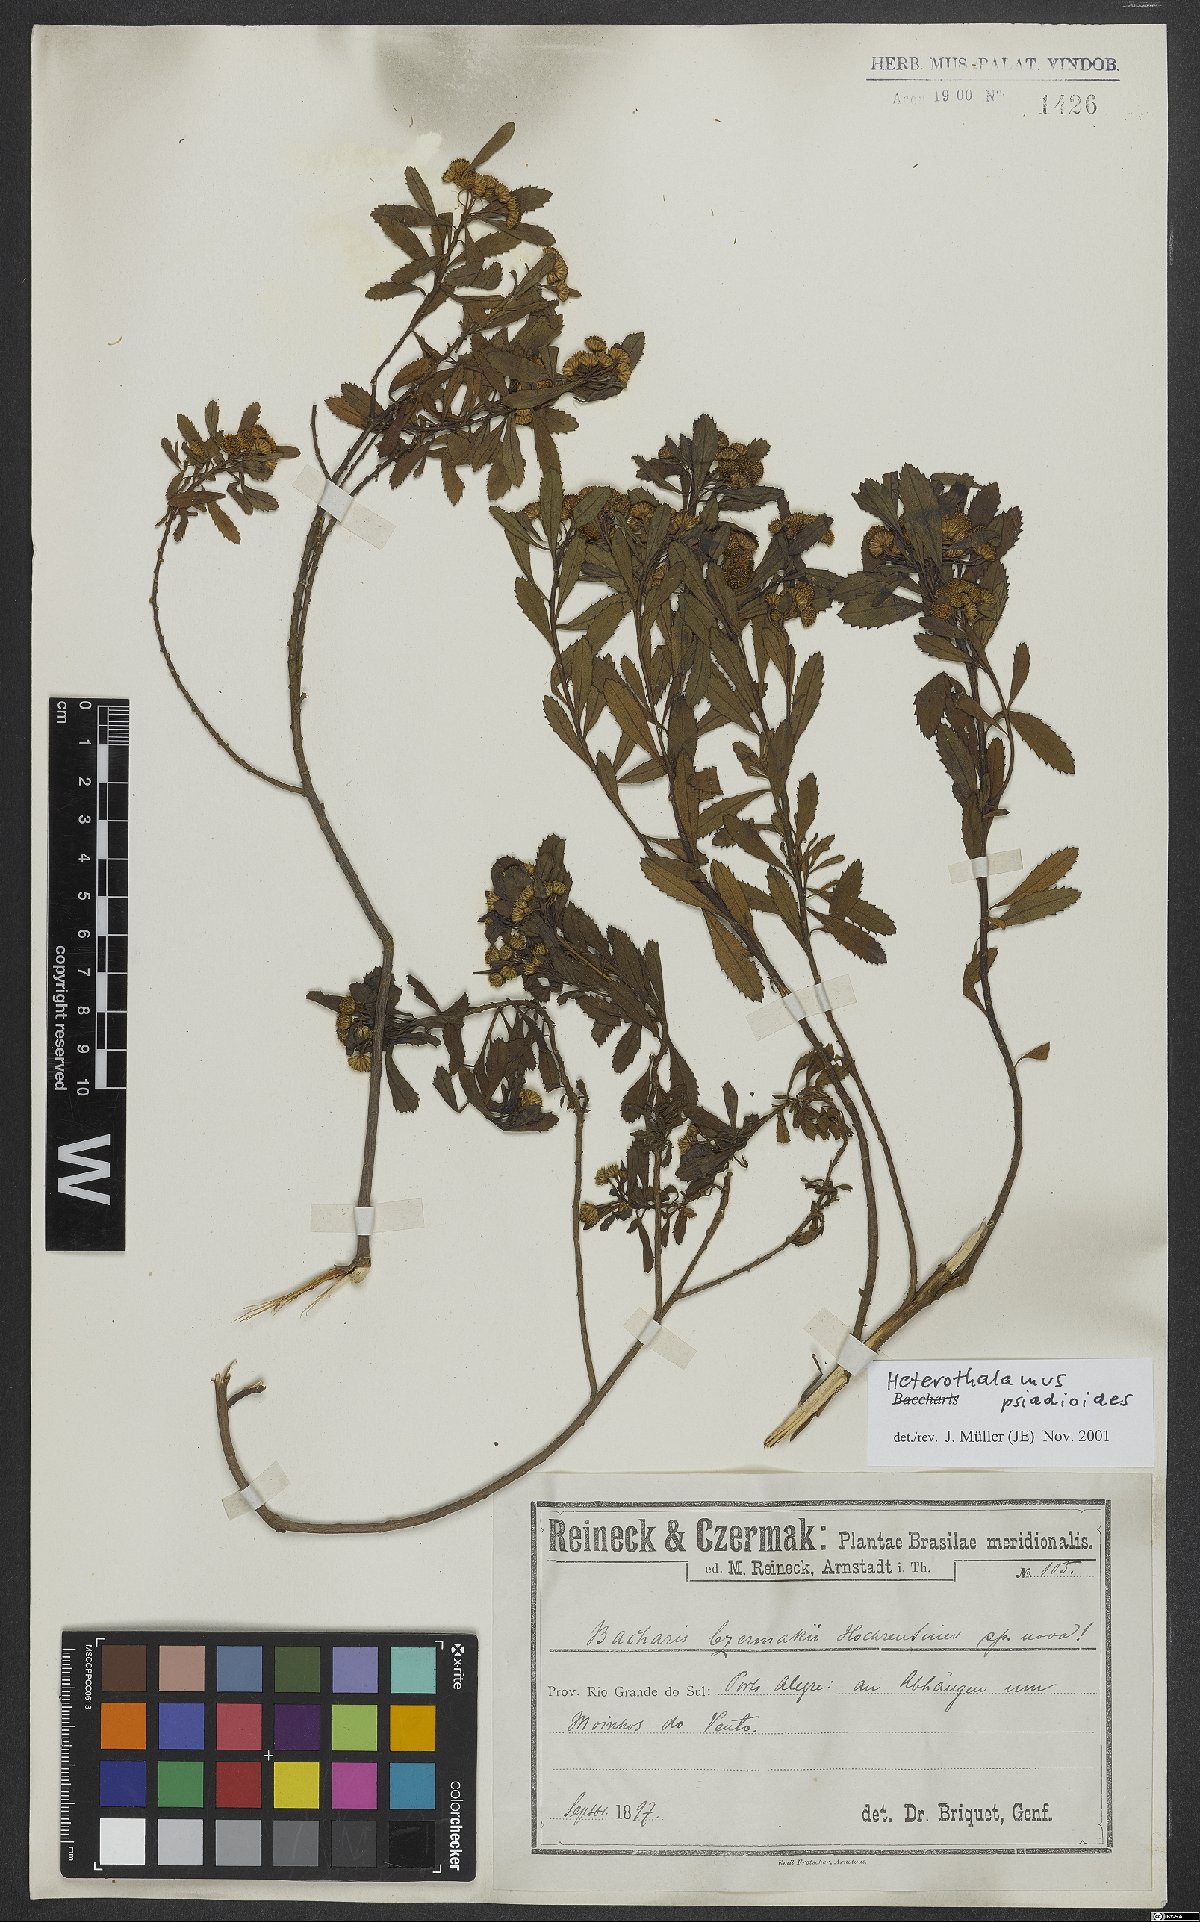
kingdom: Plantae
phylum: Tracheophyta
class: Magnoliopsida
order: Asterales
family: Asteraceae
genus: Baccharis
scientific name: Baccharis psiadioides
